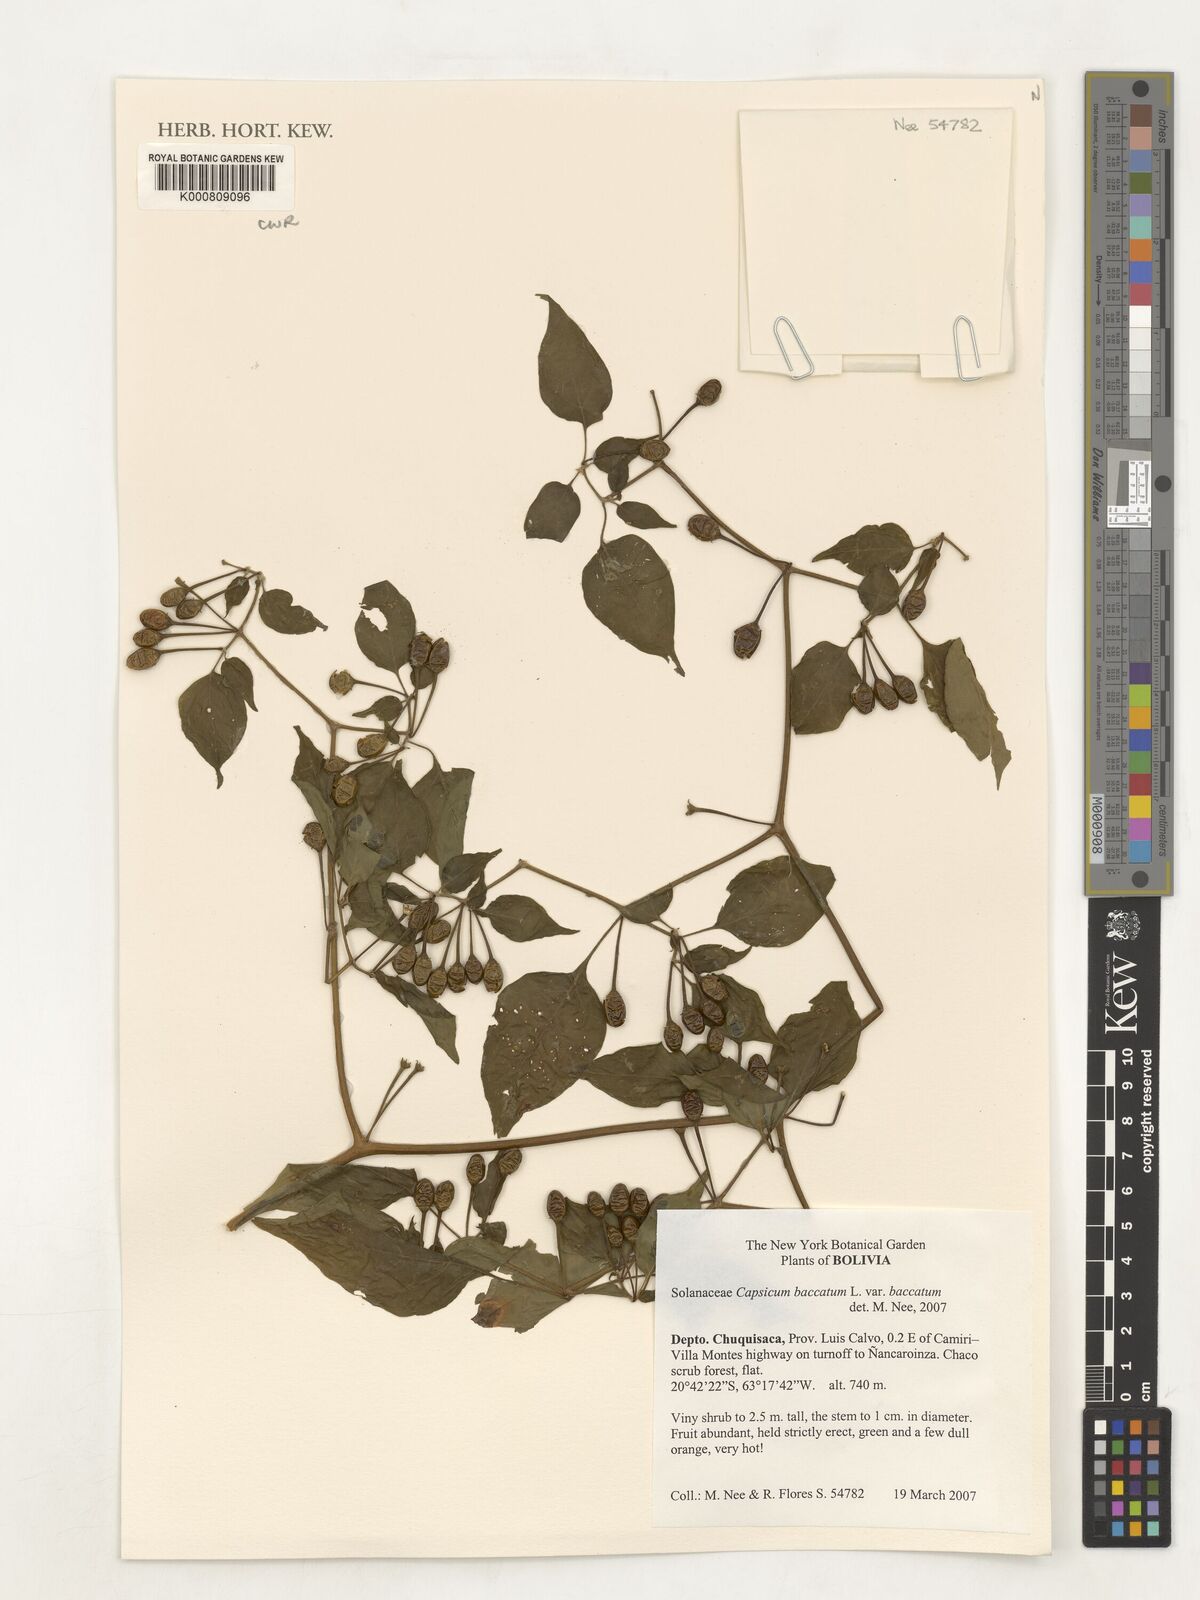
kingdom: Plantae
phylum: Tracheophyta
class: Magnoliopsida
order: Solanales
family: Solanaceae
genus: Capsicum
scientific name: Capsicum baccatum
